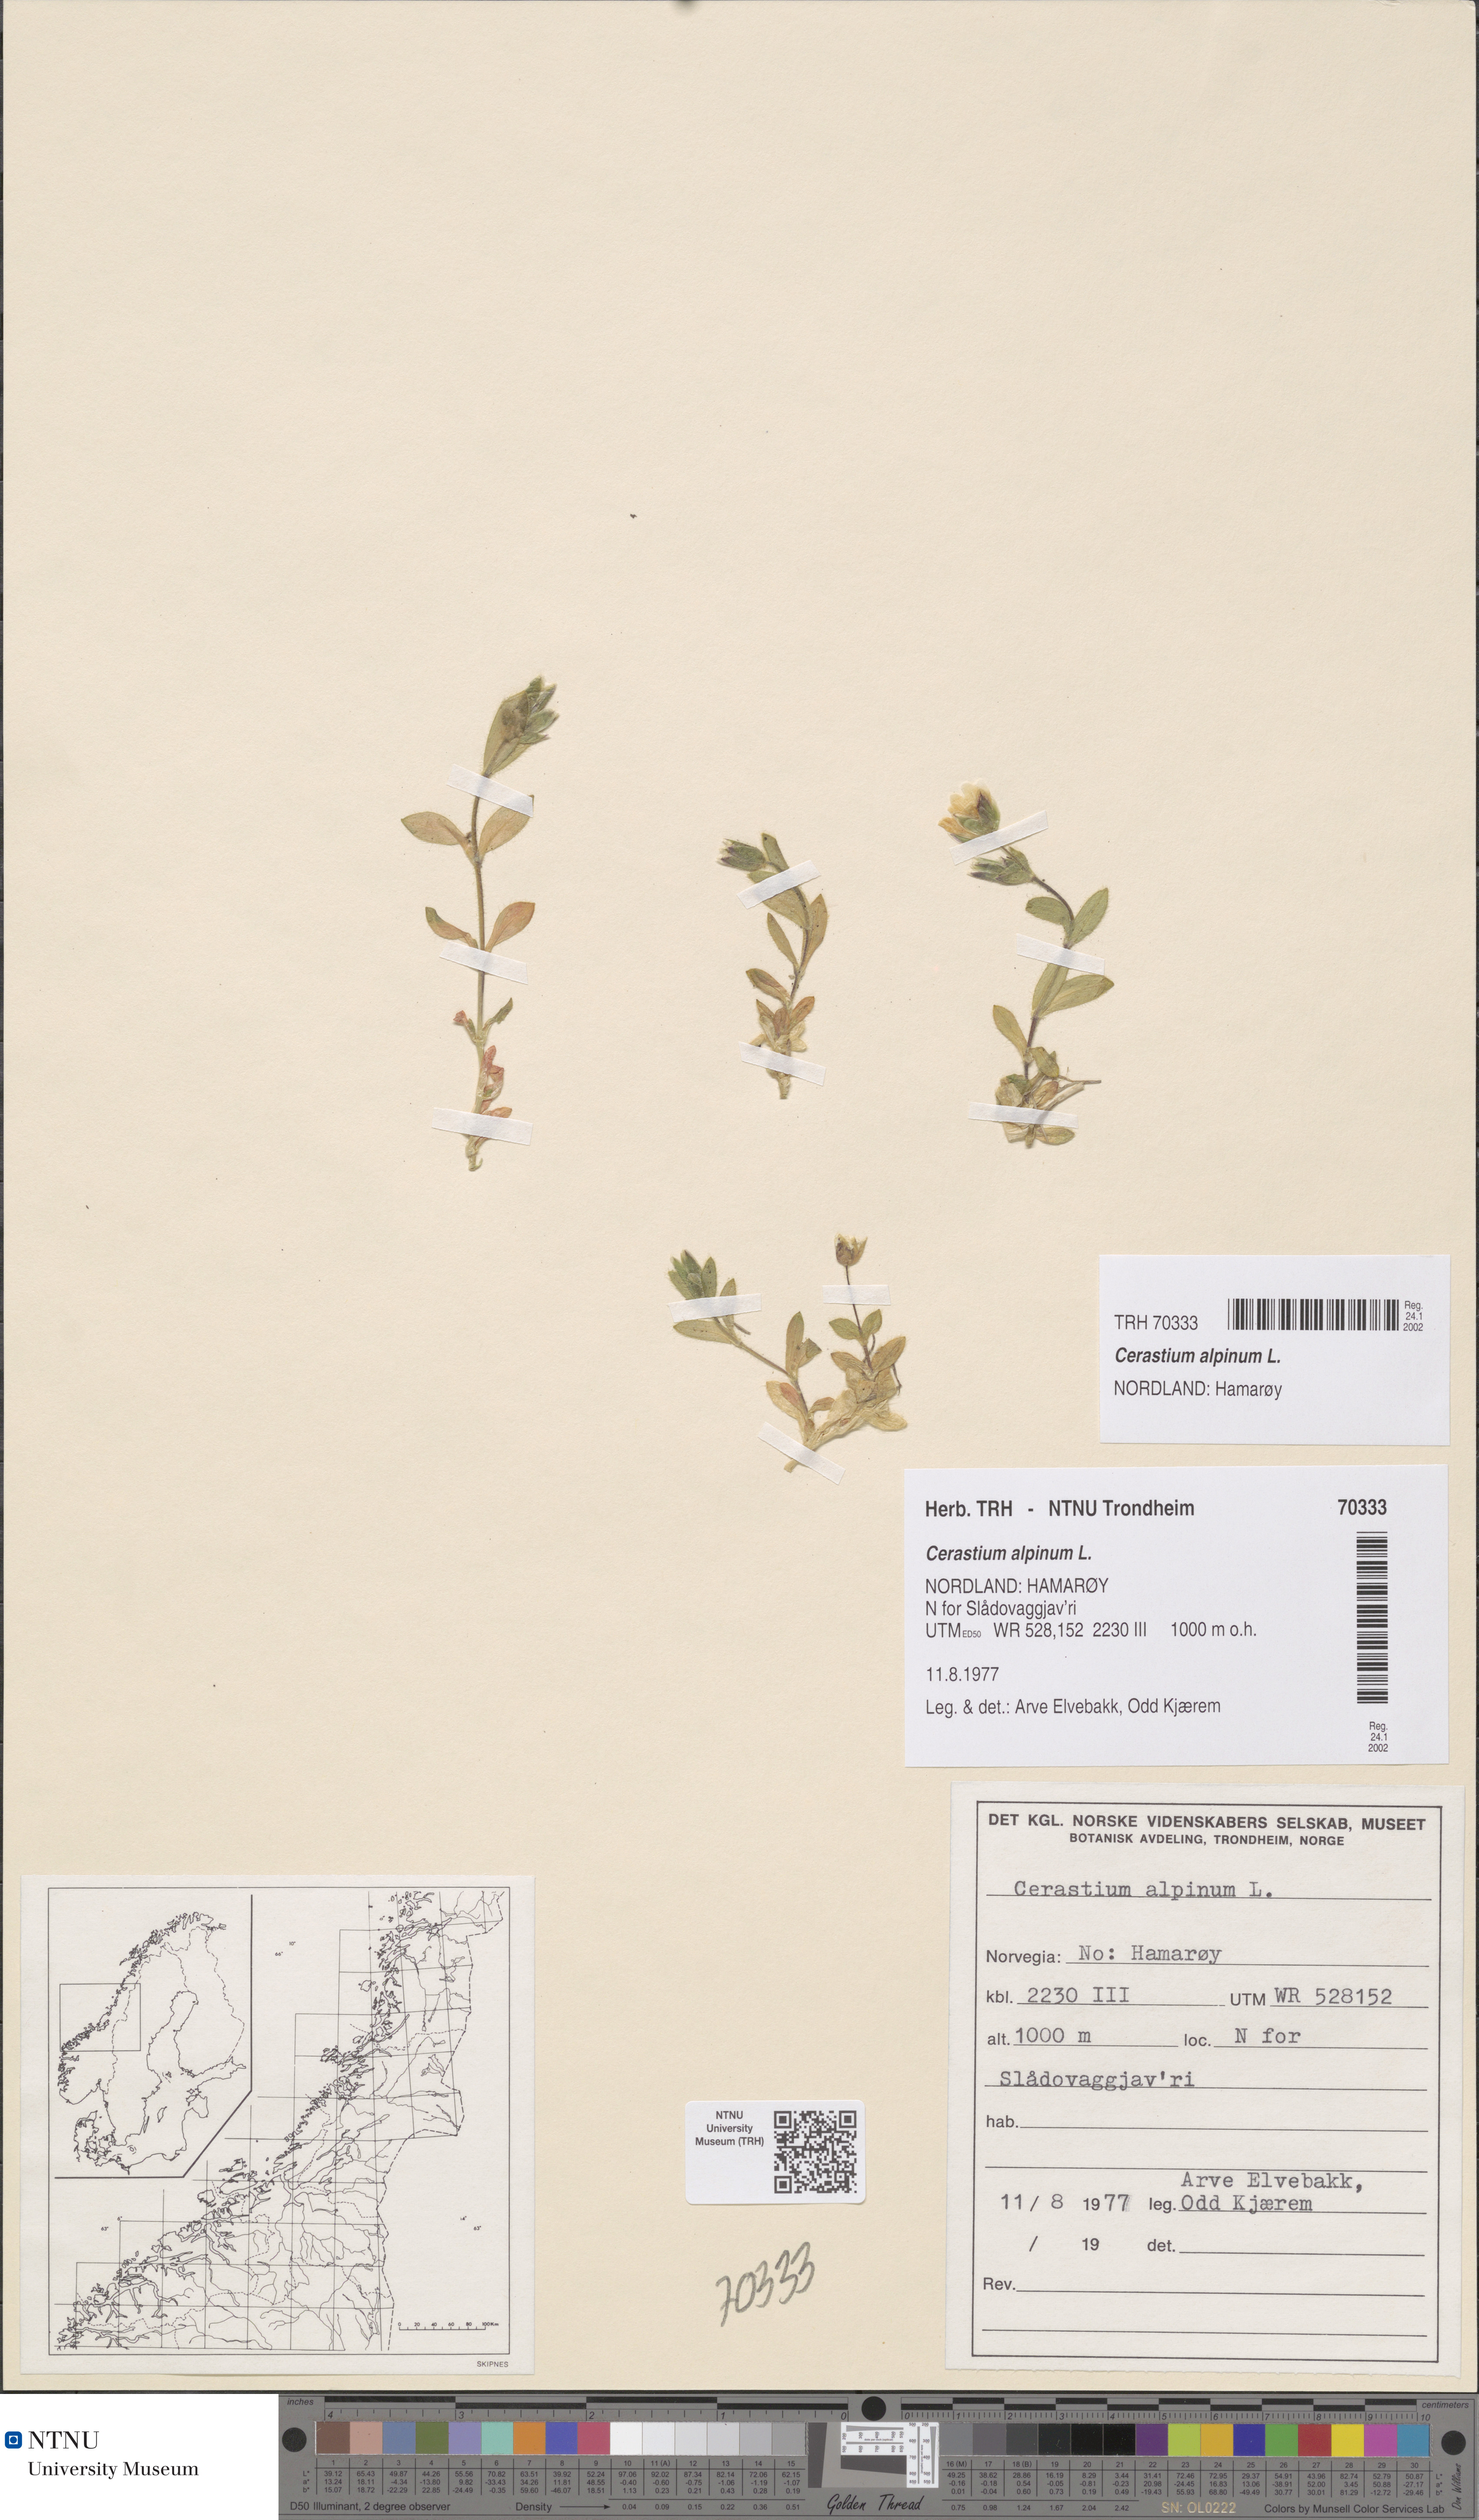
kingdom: Plantae
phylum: Tracheophyta
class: Magnoliopsida
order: Caryophyllales
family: Caryophyllaceae
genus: Cerastium
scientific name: Cerastium alpinum
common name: Alpine mouse-ear
